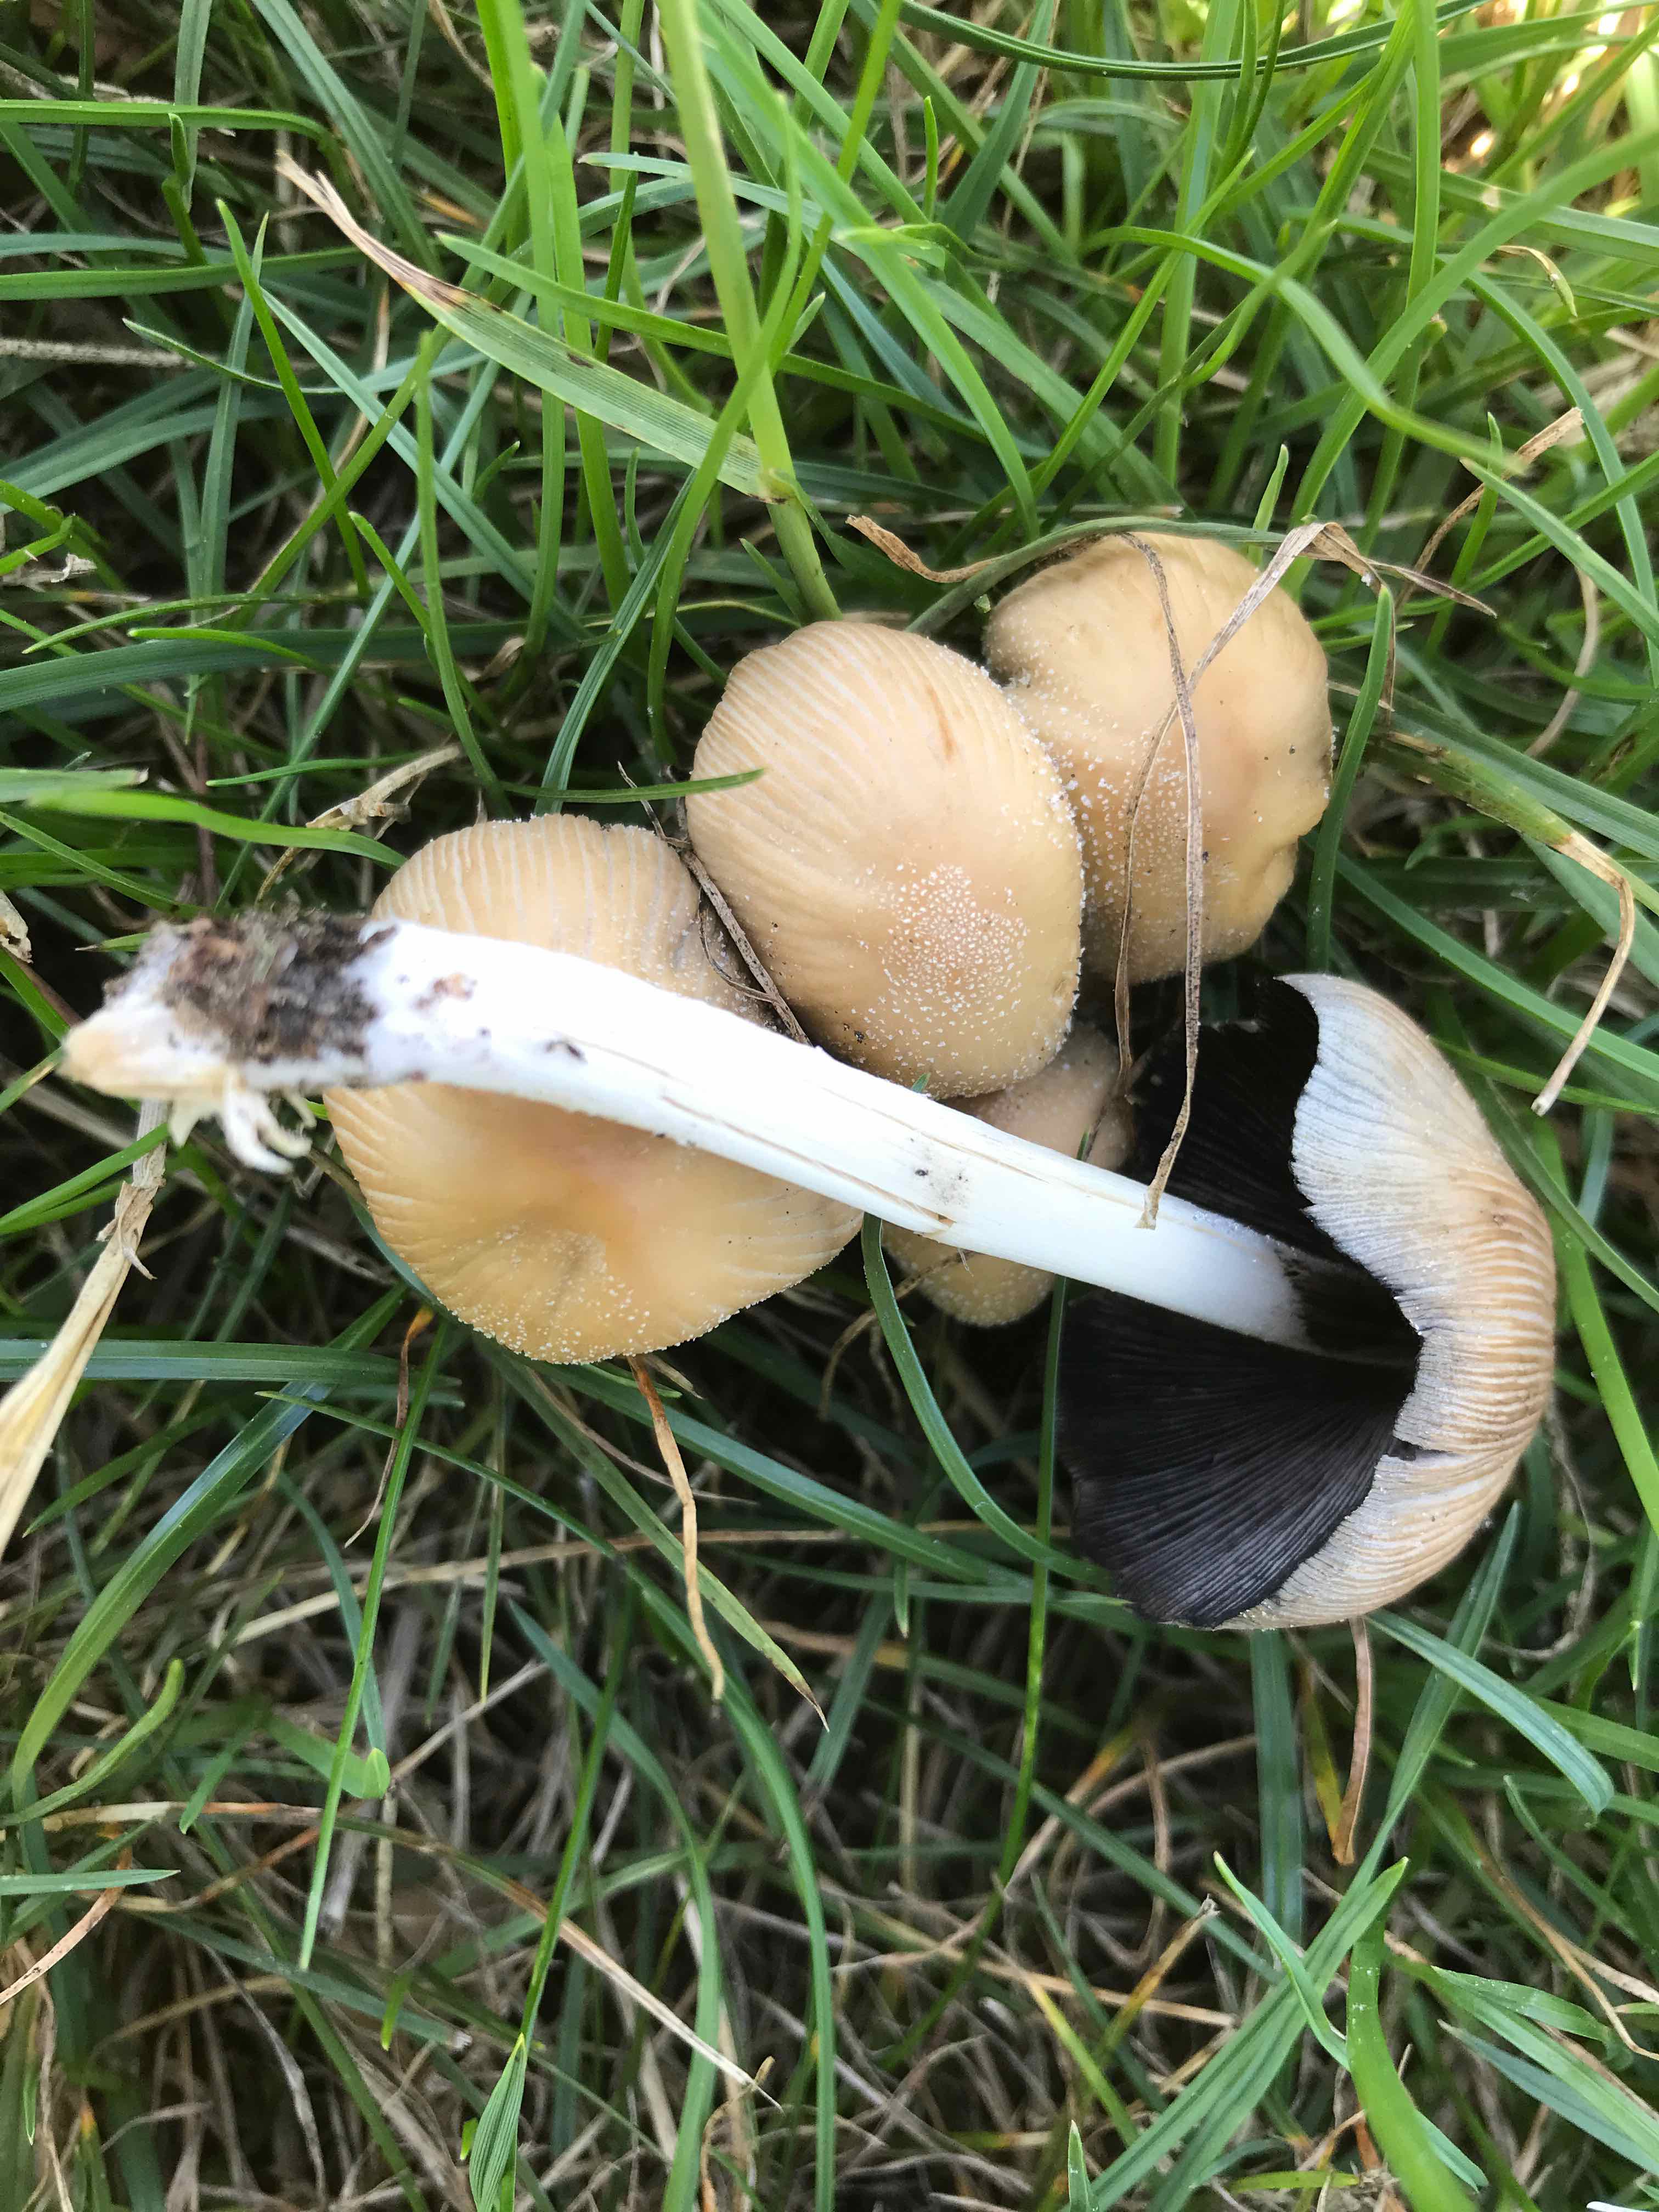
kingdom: Fungi
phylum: Basidiomycota
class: Agaricomycetes
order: Agaricales
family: Psathyrellaceae
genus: Coprinellus
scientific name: Coprinellus micaceus
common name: glimmer-blækhat
